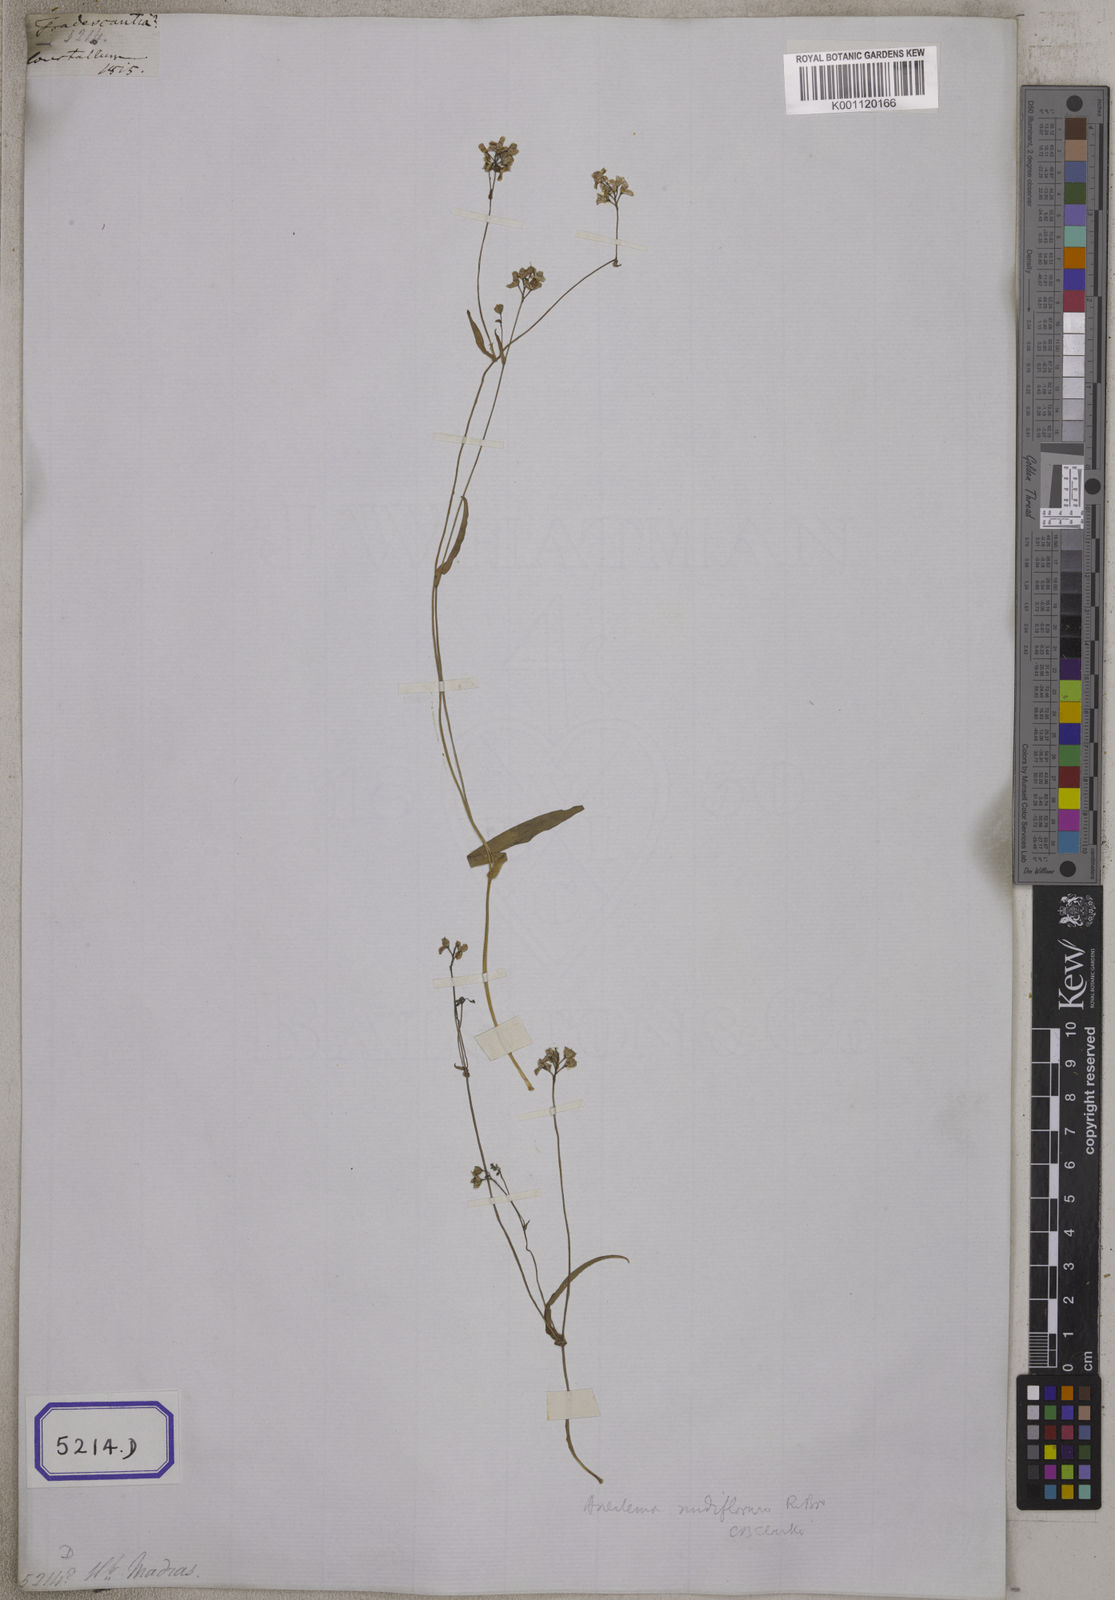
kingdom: Plantae
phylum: Tracheophyta
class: Liliopsida
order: Commelinales
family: Commelinaceae
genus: Aneilema
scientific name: Aneilema
